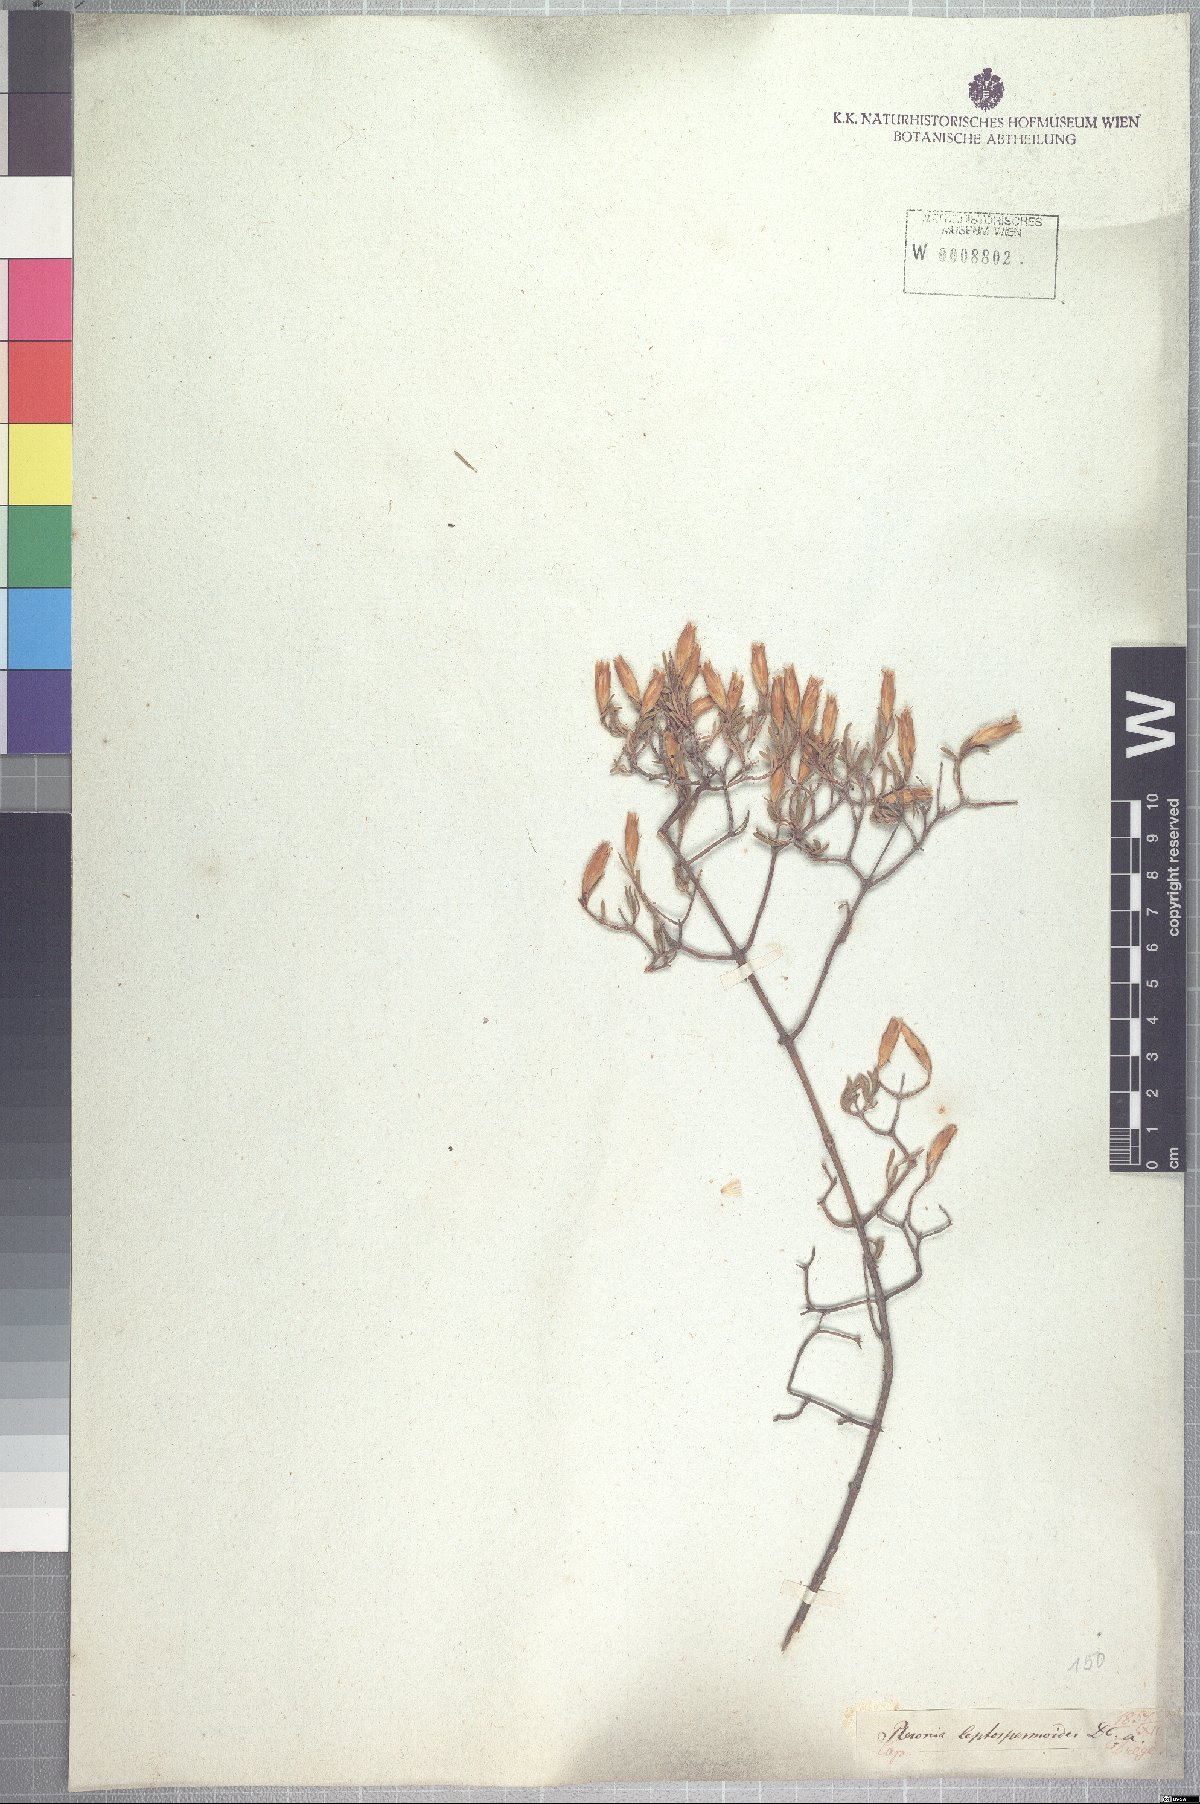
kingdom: Plantae
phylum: Tracheophyta
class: Magnoliopsida
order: Asterales
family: Asteraceae
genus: Pteronia
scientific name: Pteronia leptospermoides
